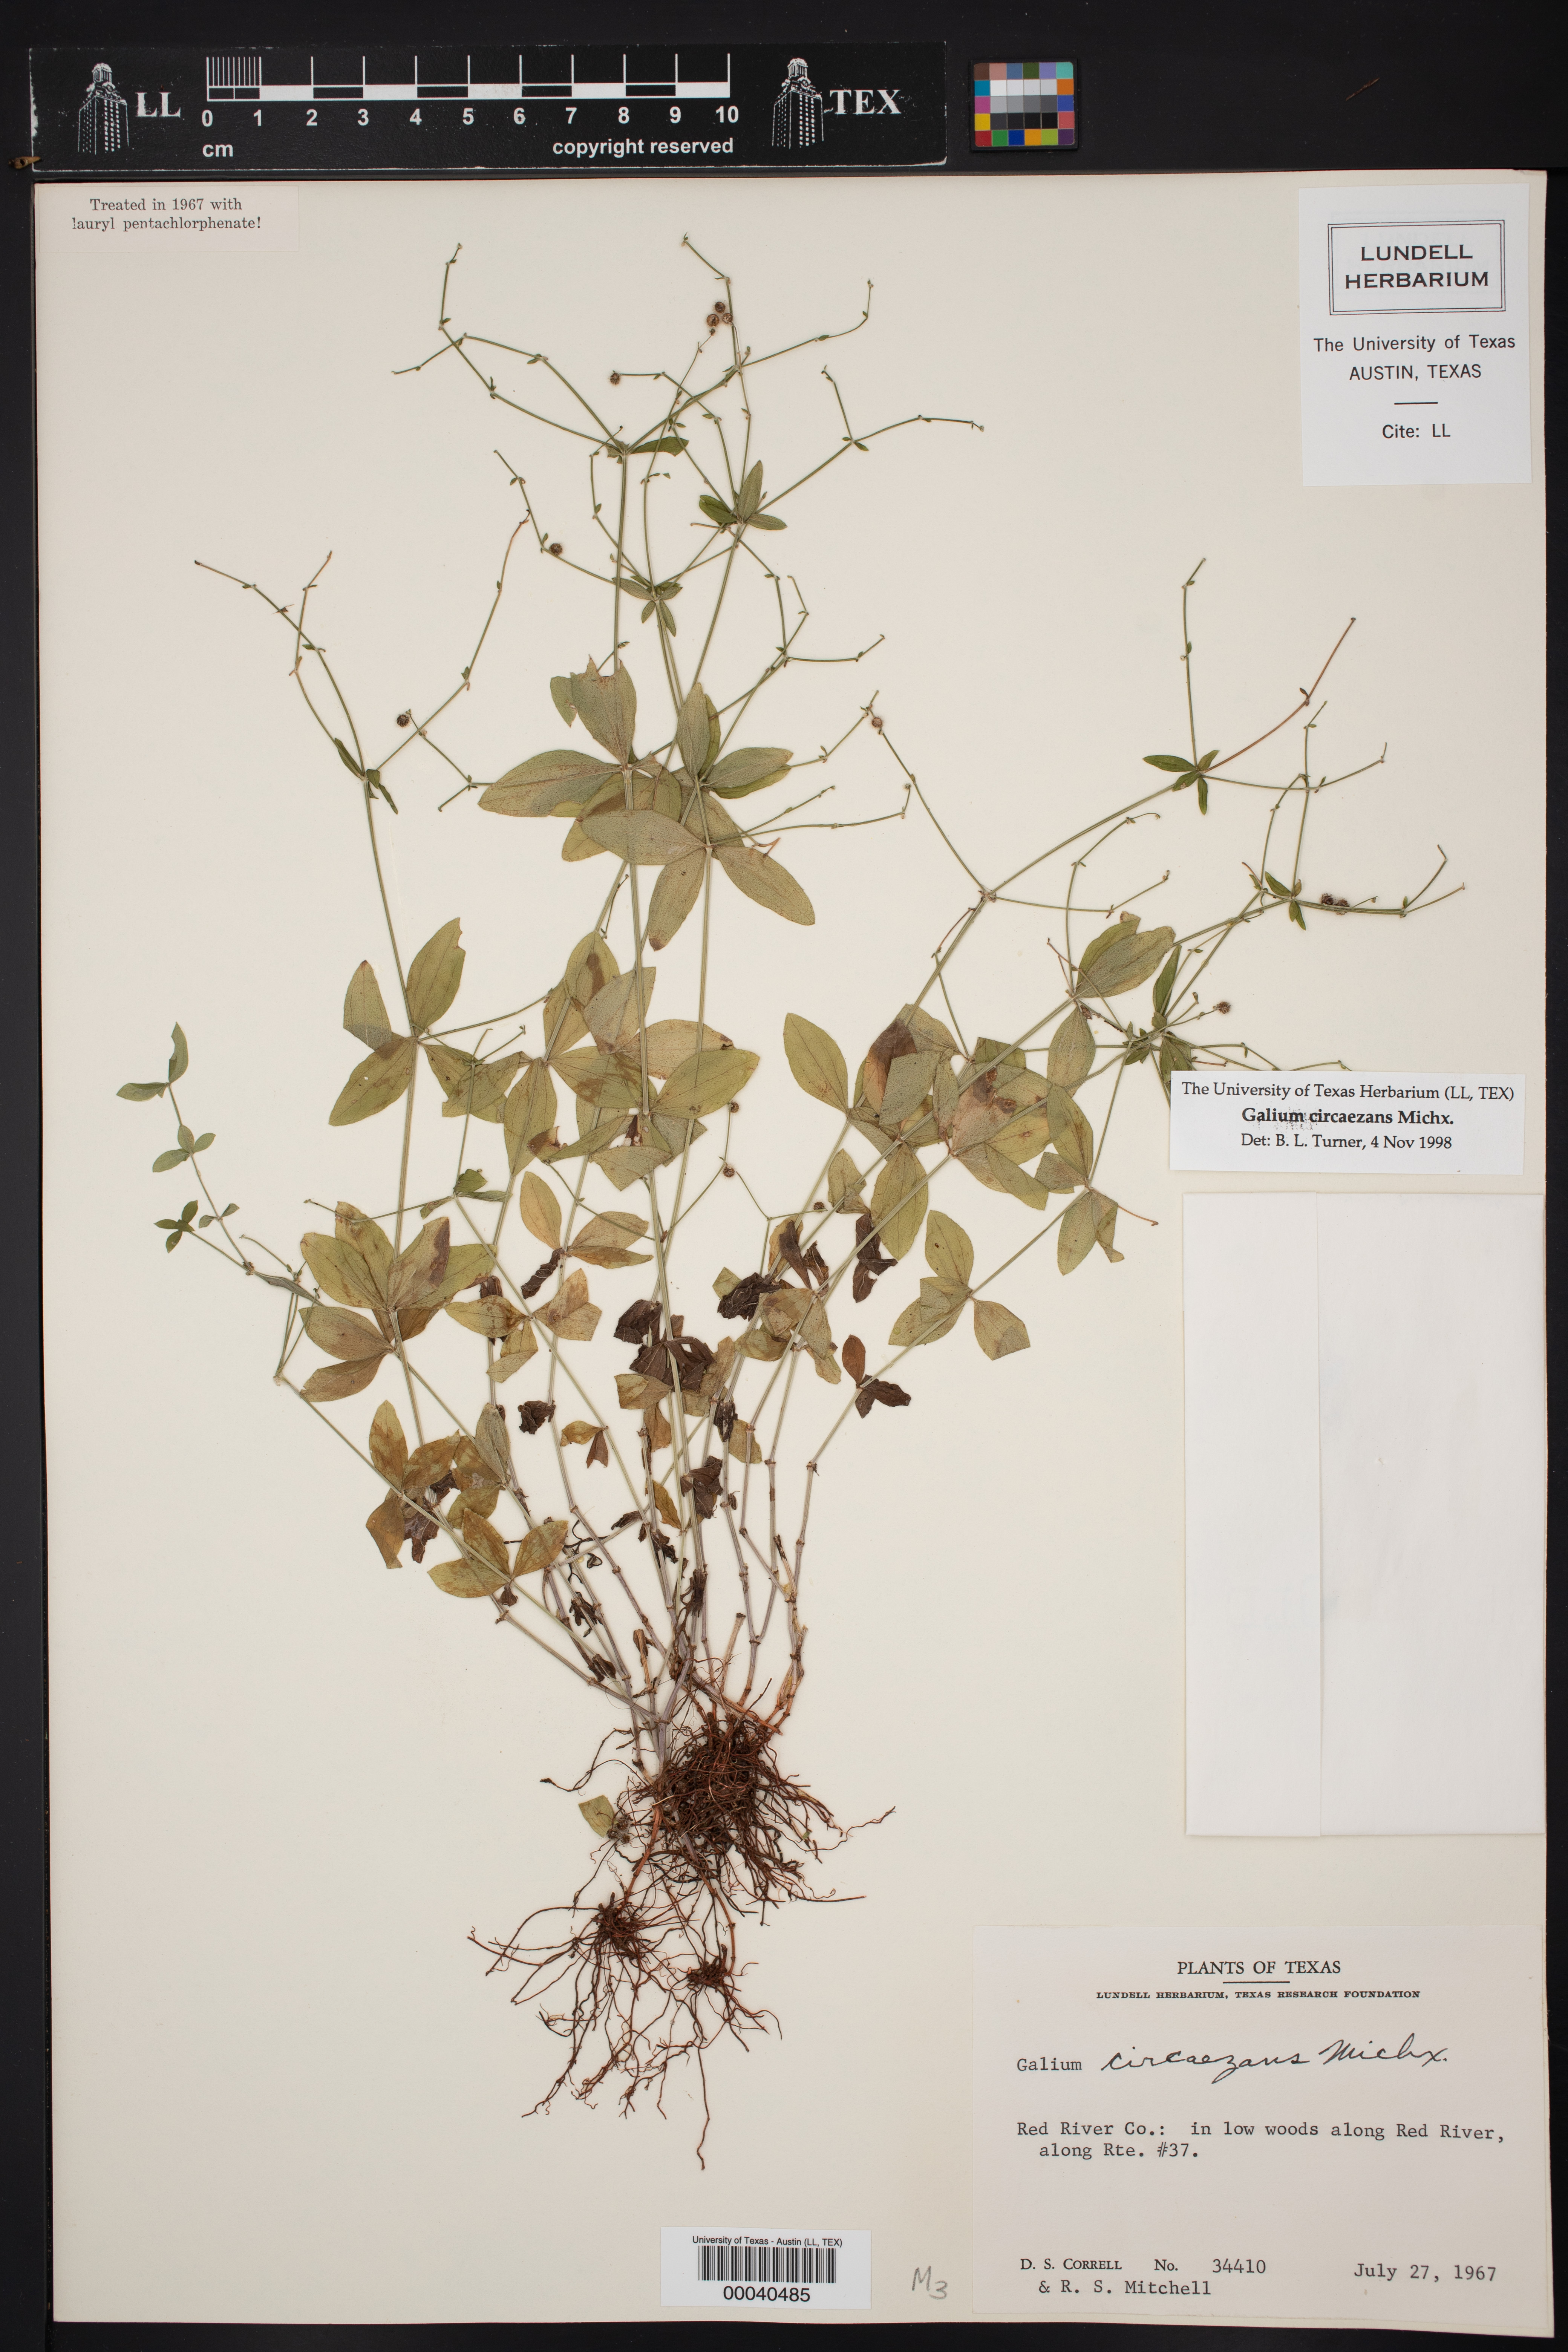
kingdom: Plantae
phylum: Tracheophyta
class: Magnoliopsida
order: Gentianales
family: Rubiaceae
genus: Galium
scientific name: Galium circaezans
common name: Forest bedstraw
